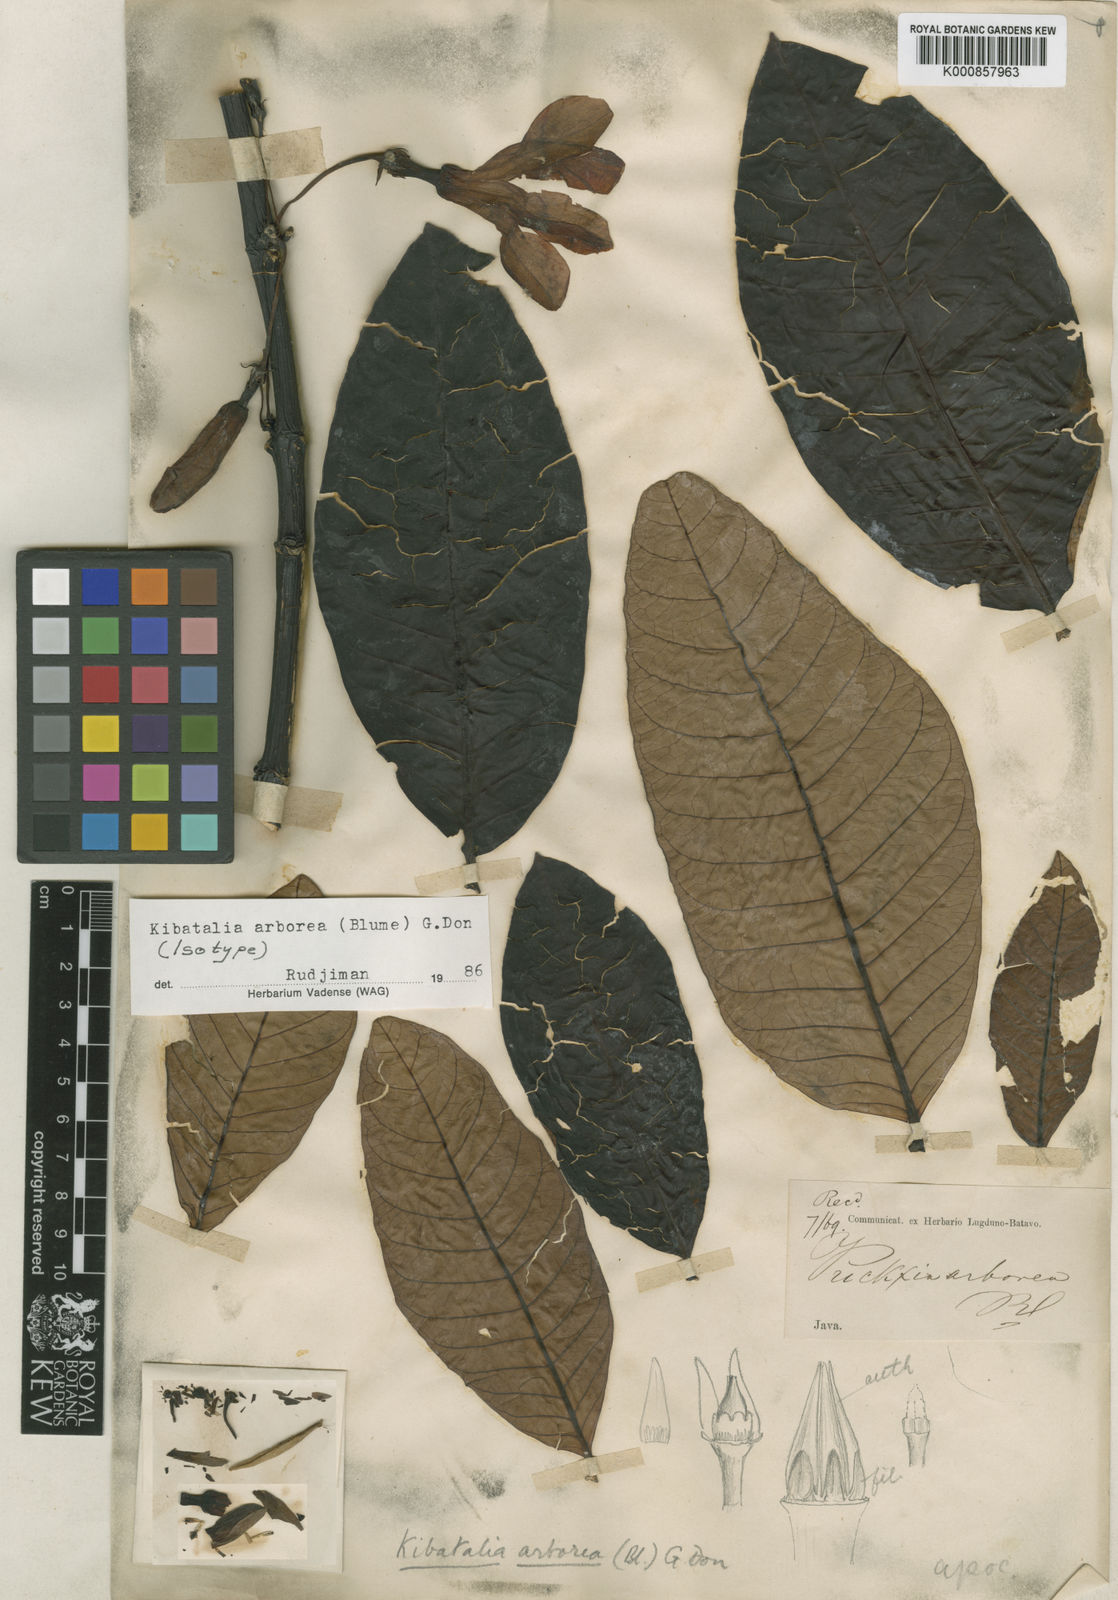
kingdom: Plantae
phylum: Tracheophyta
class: Magnoliopsida
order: Gentianales
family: Apocynaceae
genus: Kibatalia
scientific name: Kibatalia arborea
